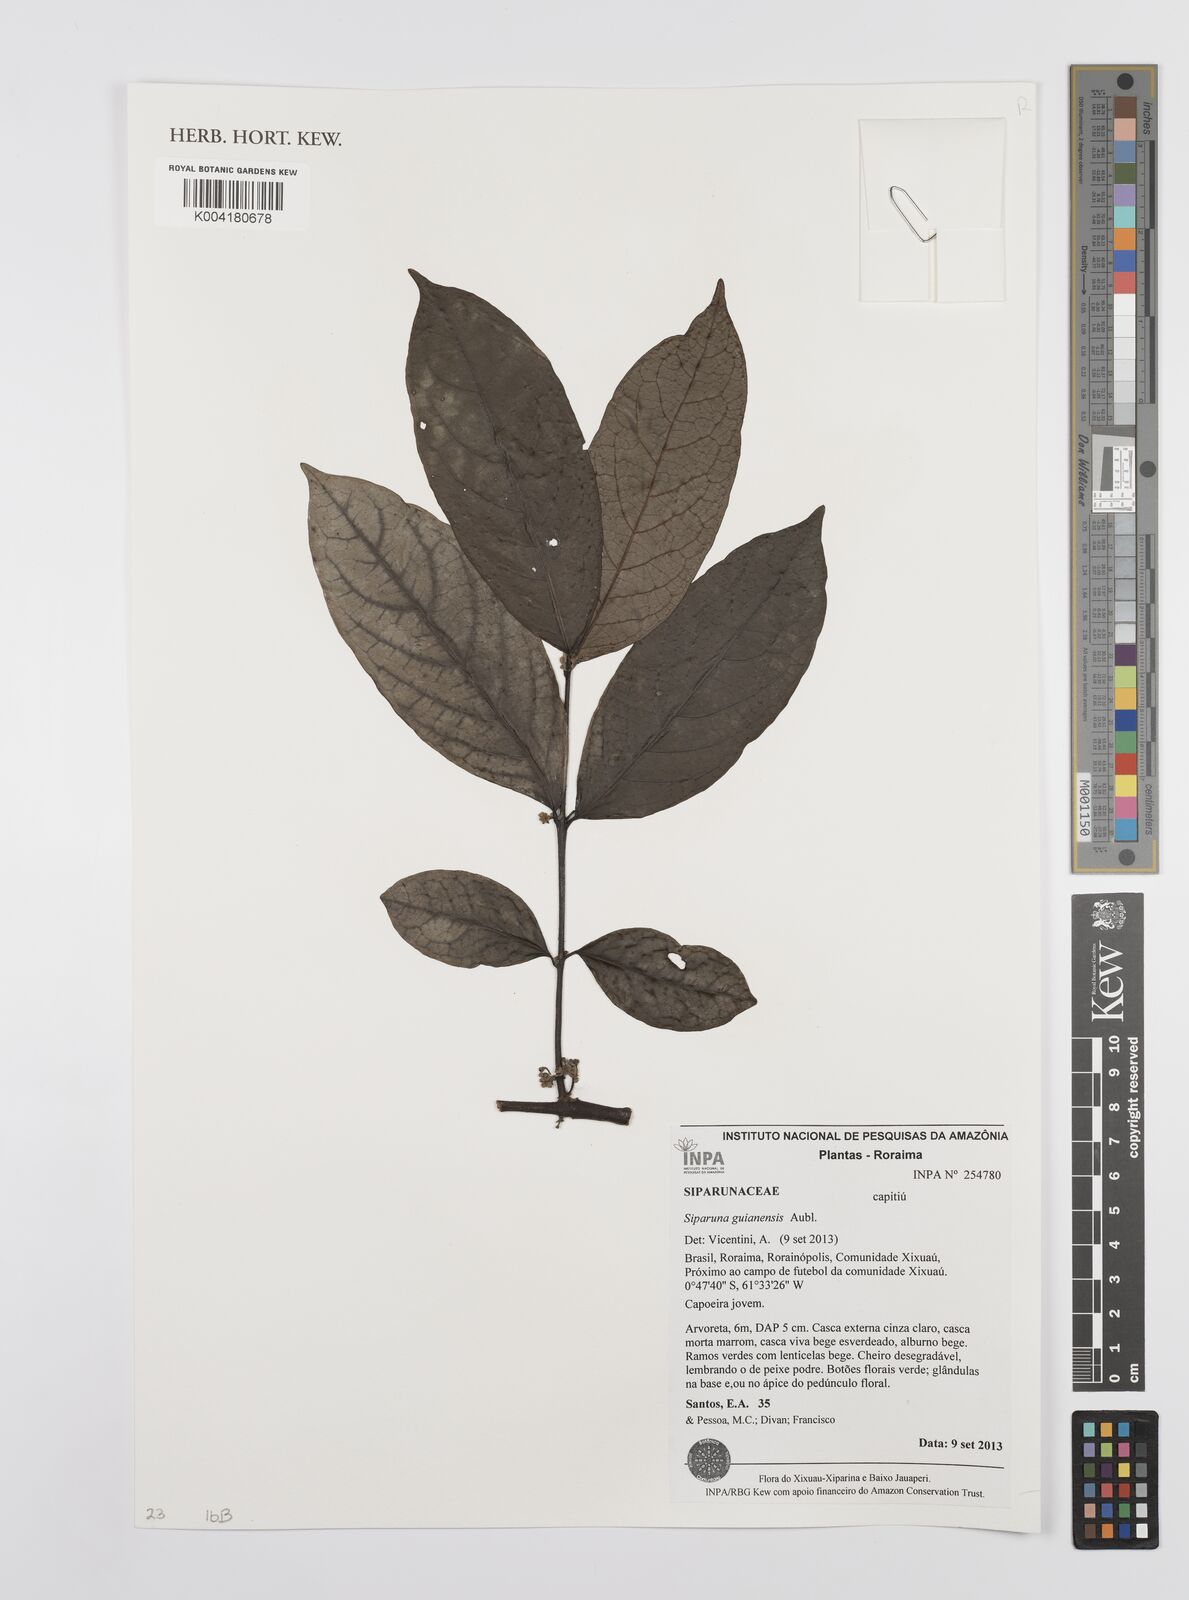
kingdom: Plantae
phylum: Tracheophyta
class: Magnoliopsida
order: Laurales
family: Siparunaceae
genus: Siparuna
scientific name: Siparuna guianensis
